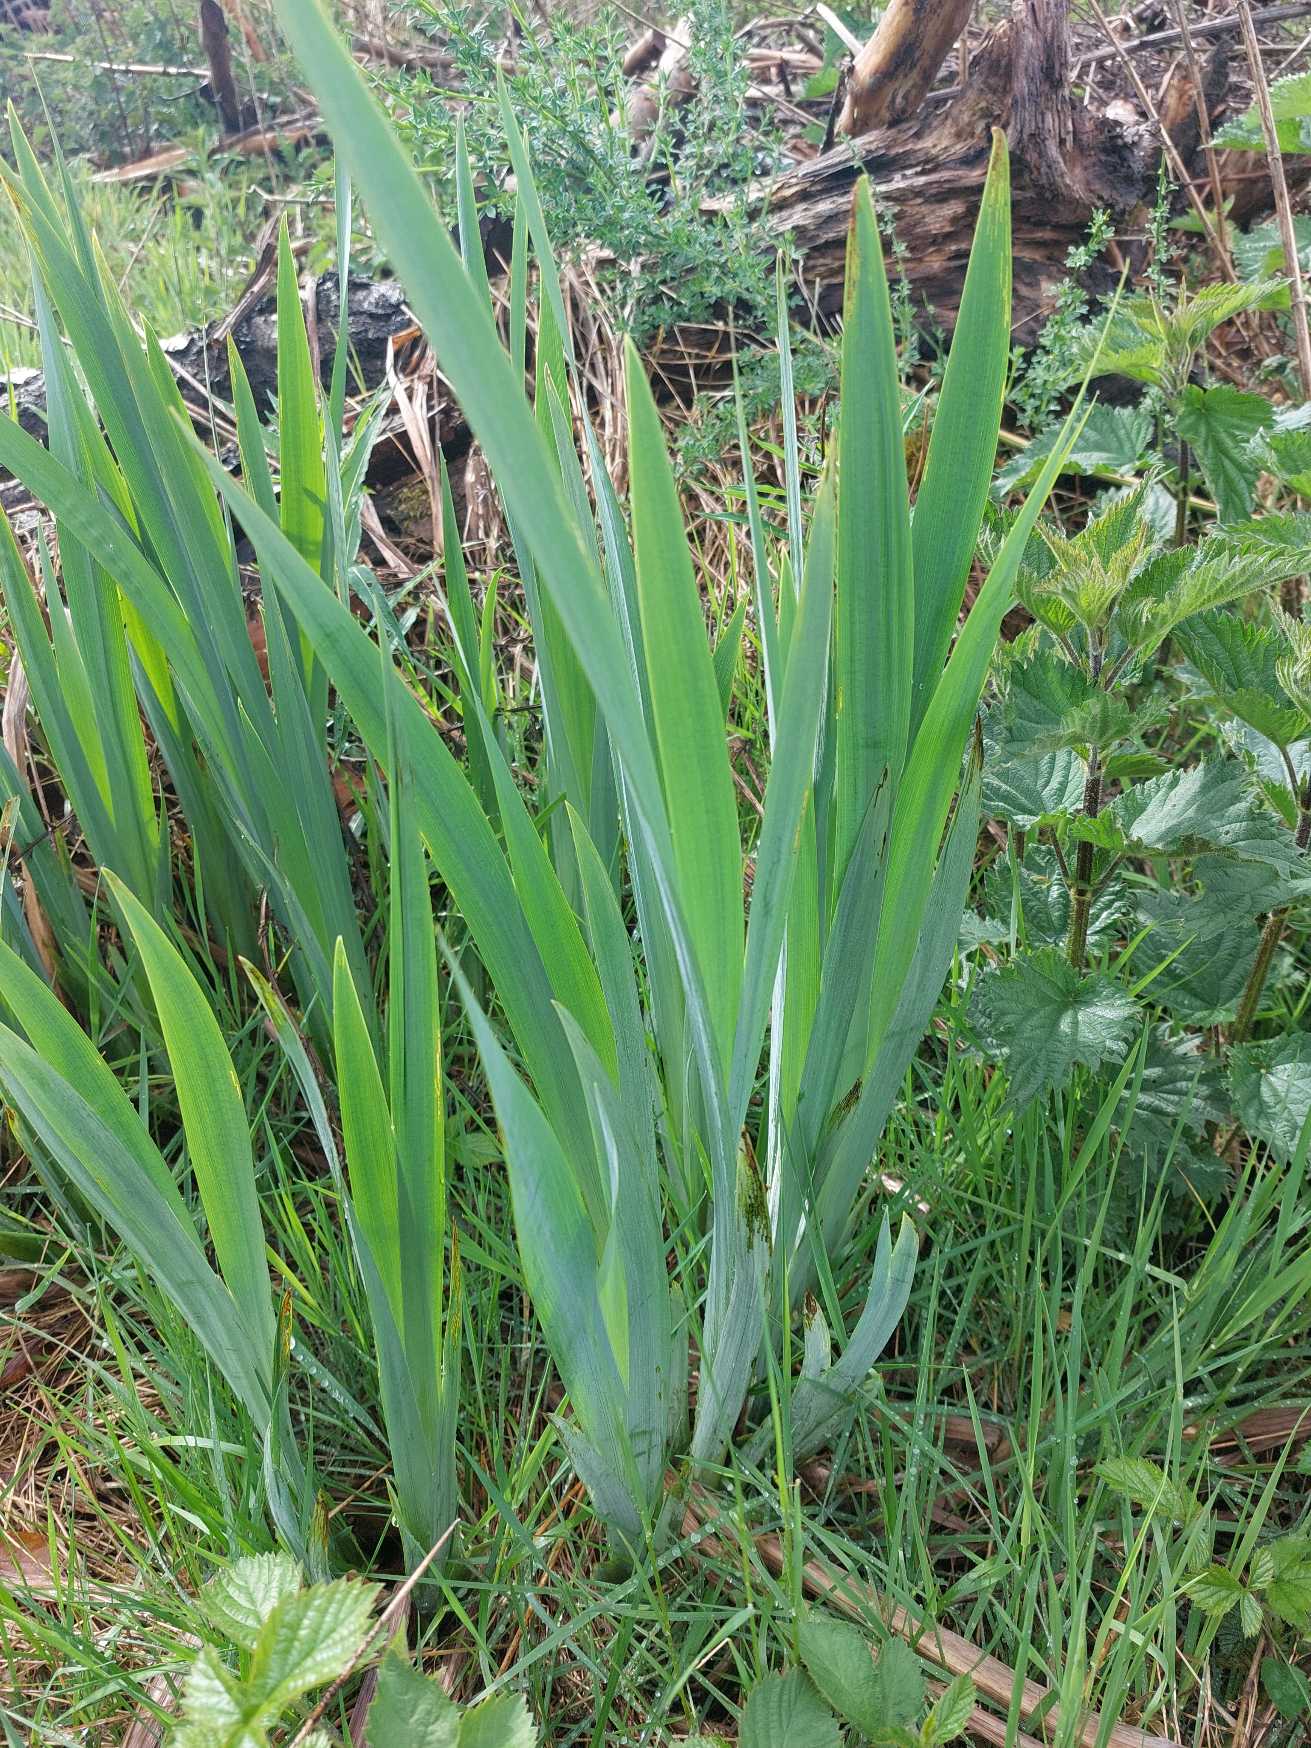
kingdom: Plantae
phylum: Tracheophyta
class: Liliopsida
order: Asparagales
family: Iridaceae
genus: Iris
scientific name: Iris pseudacorus
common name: Gul iris
